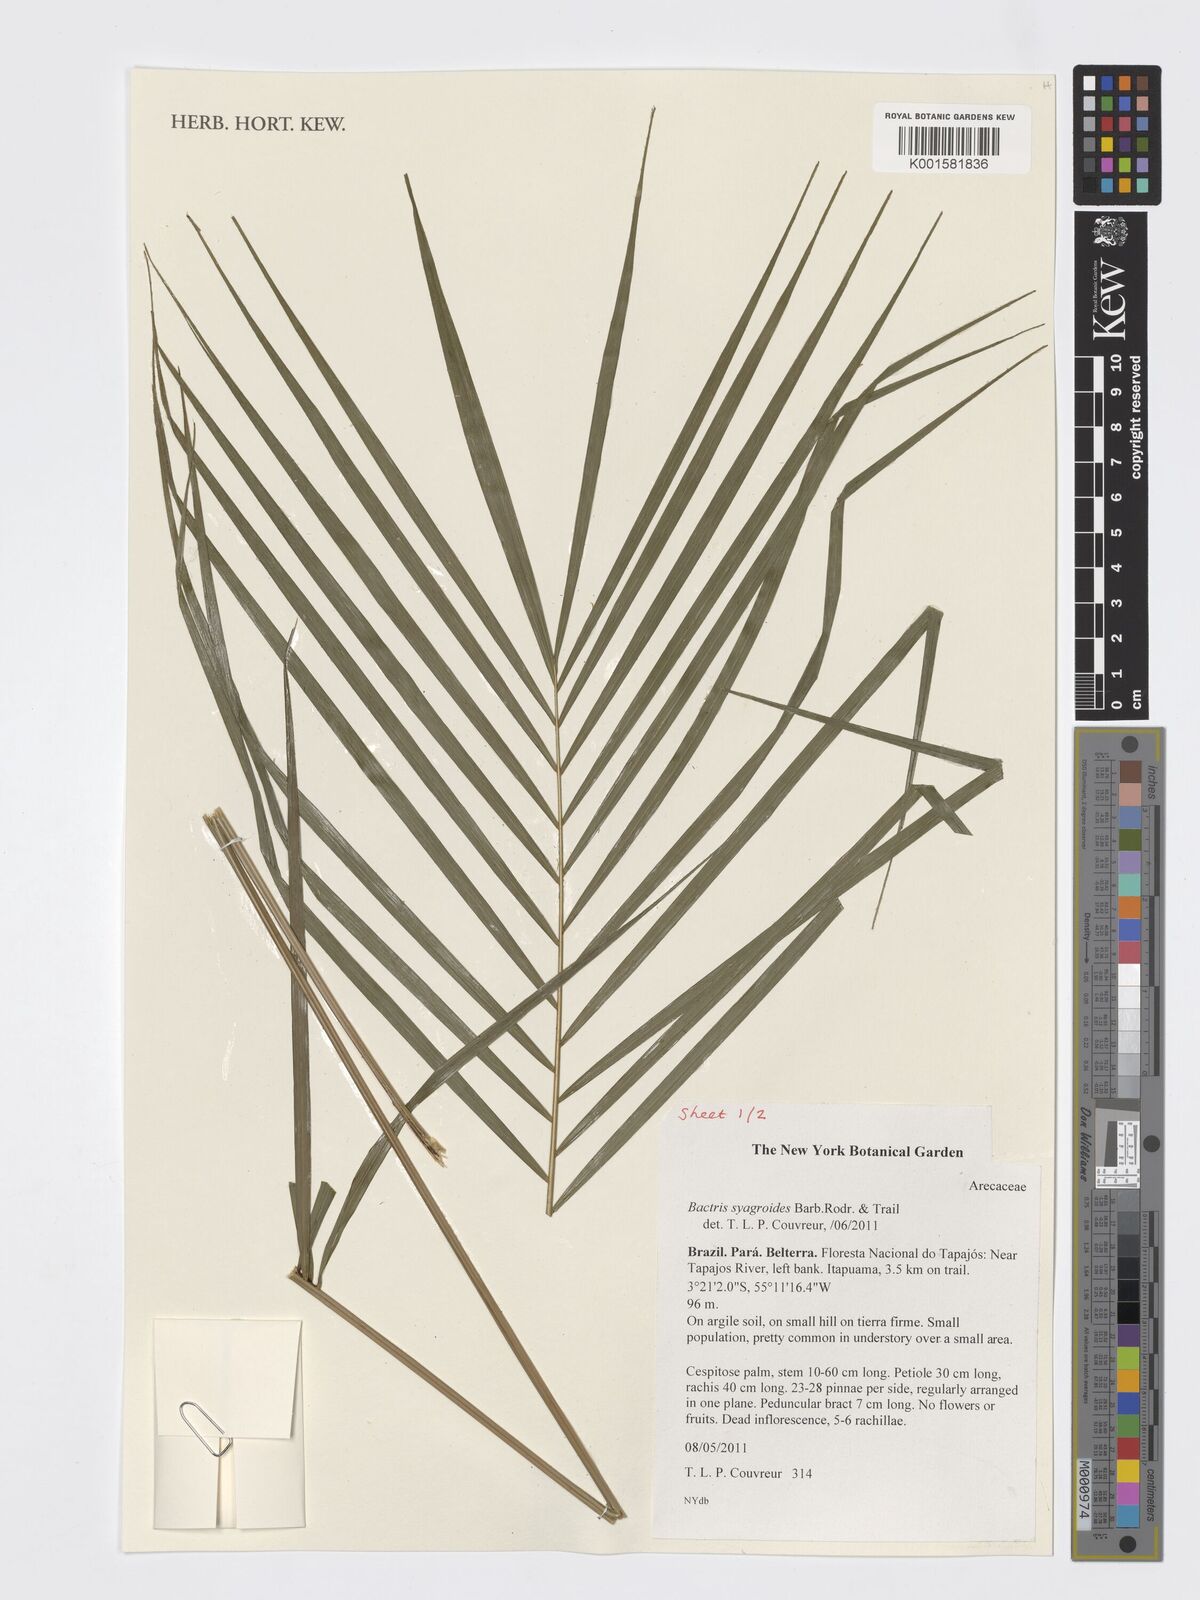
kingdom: Plantae
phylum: Tracheophyta
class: Liliopsida
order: Arecales
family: Arecaceae
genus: Bactris
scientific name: Bactris syagroides
